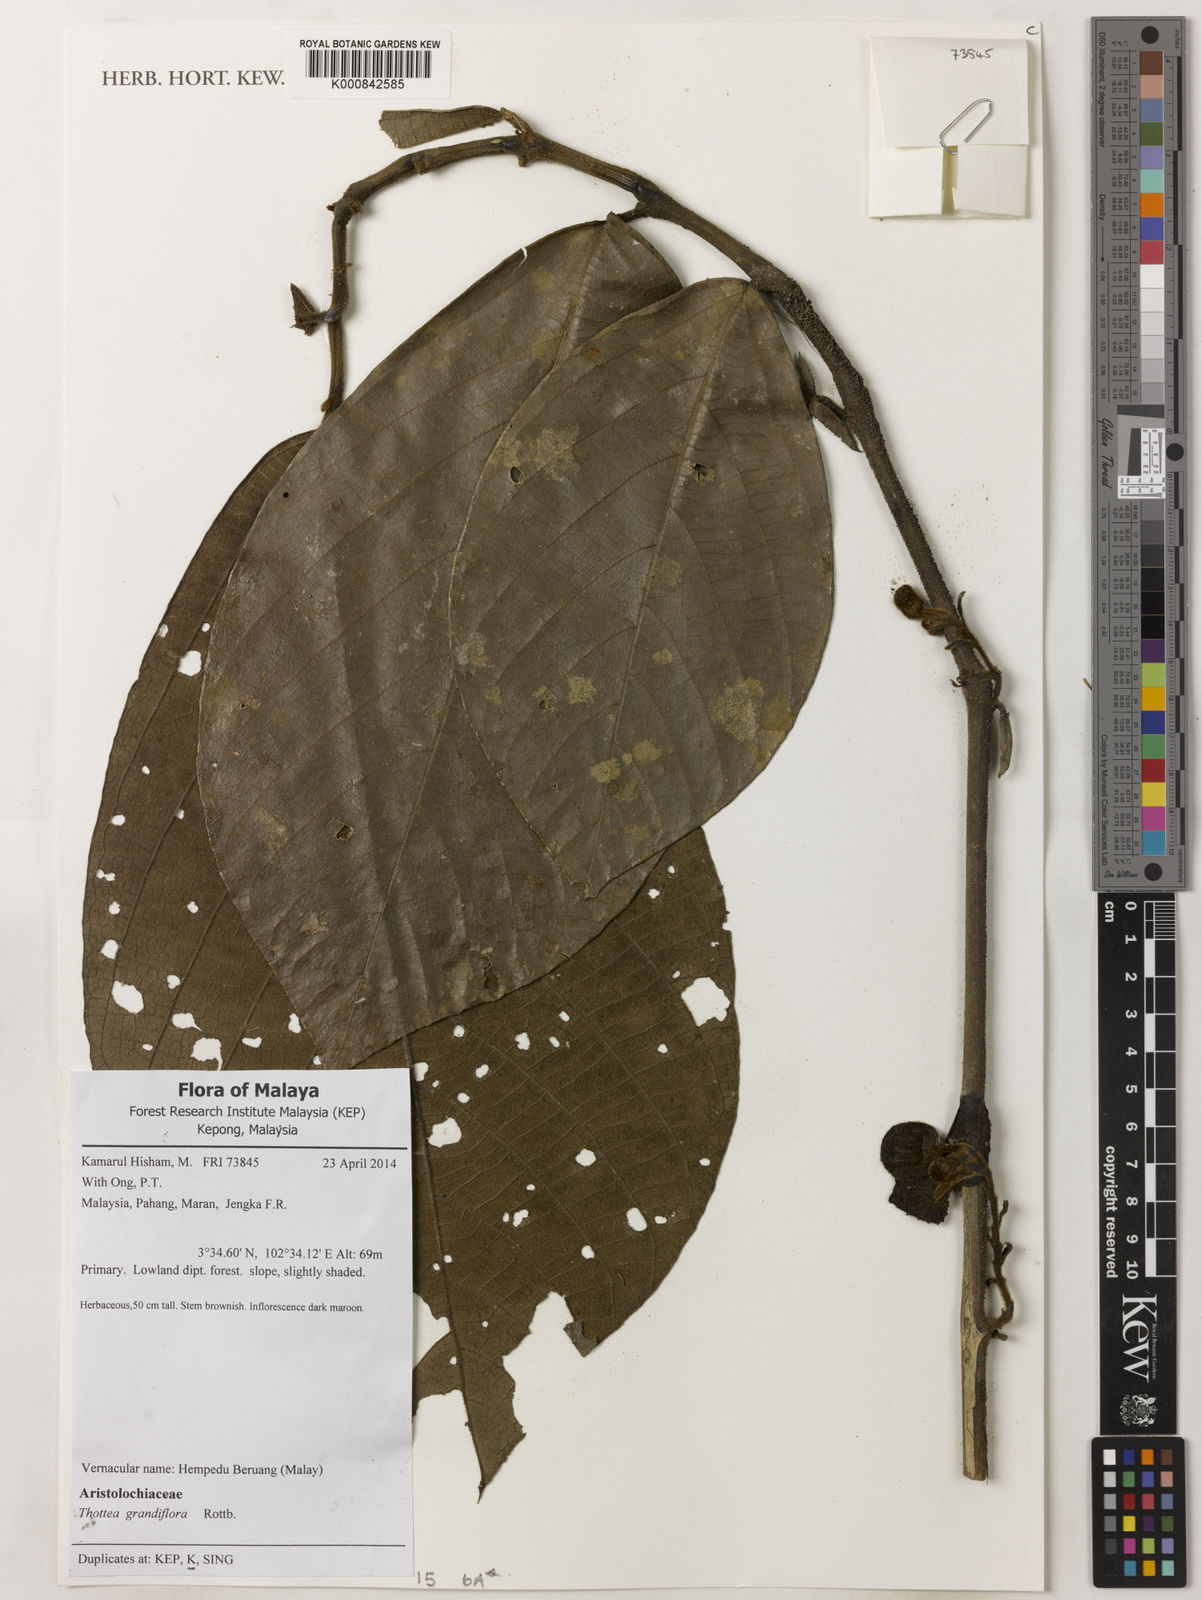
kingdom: Plantae
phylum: Tracheophyta
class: Magnoliopsida
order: Piperales
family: Aristolochiaceae
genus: Thottea
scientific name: Thottea grandiflora
